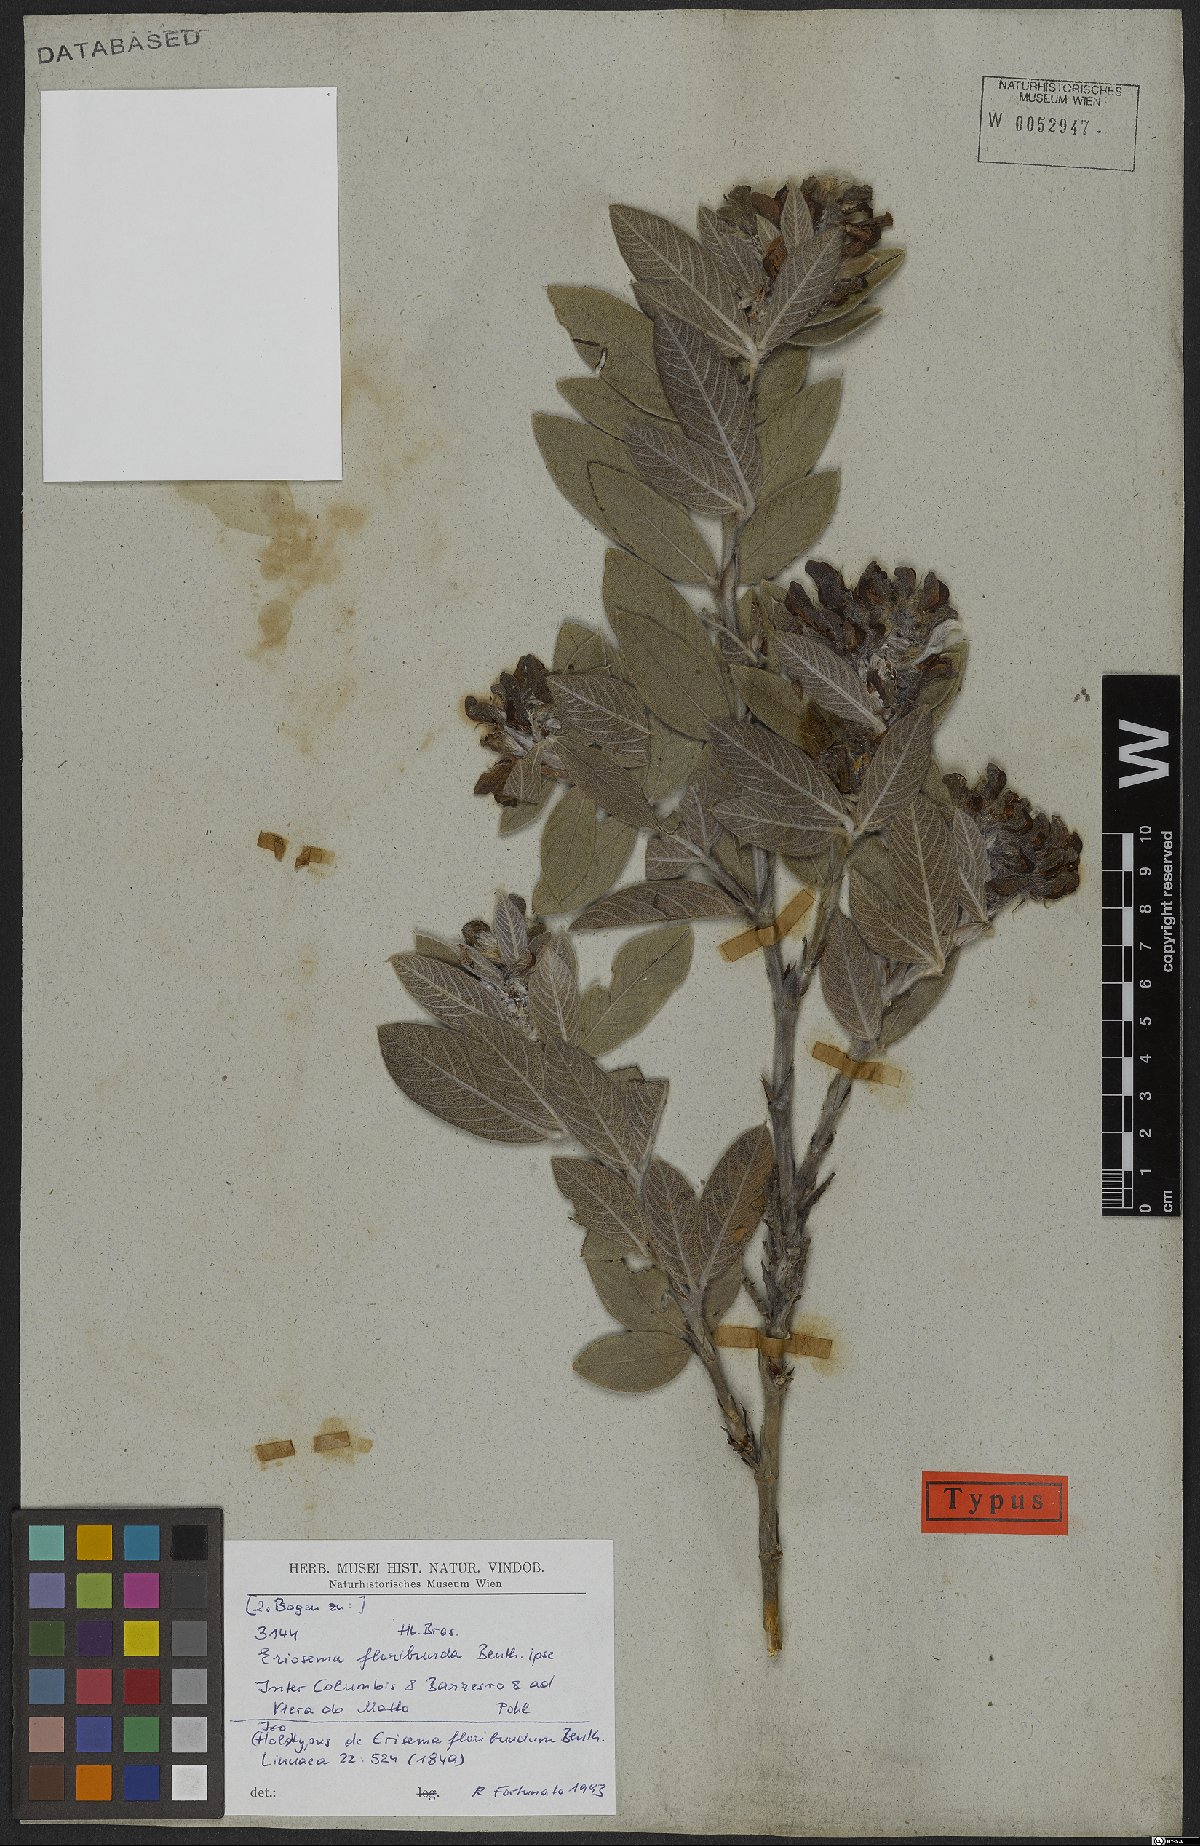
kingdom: Plantae
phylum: Tracheophyta
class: Magnoliopsida
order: Fabales
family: Fabaceae
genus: Eriosema
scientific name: Eriosema floribundum
